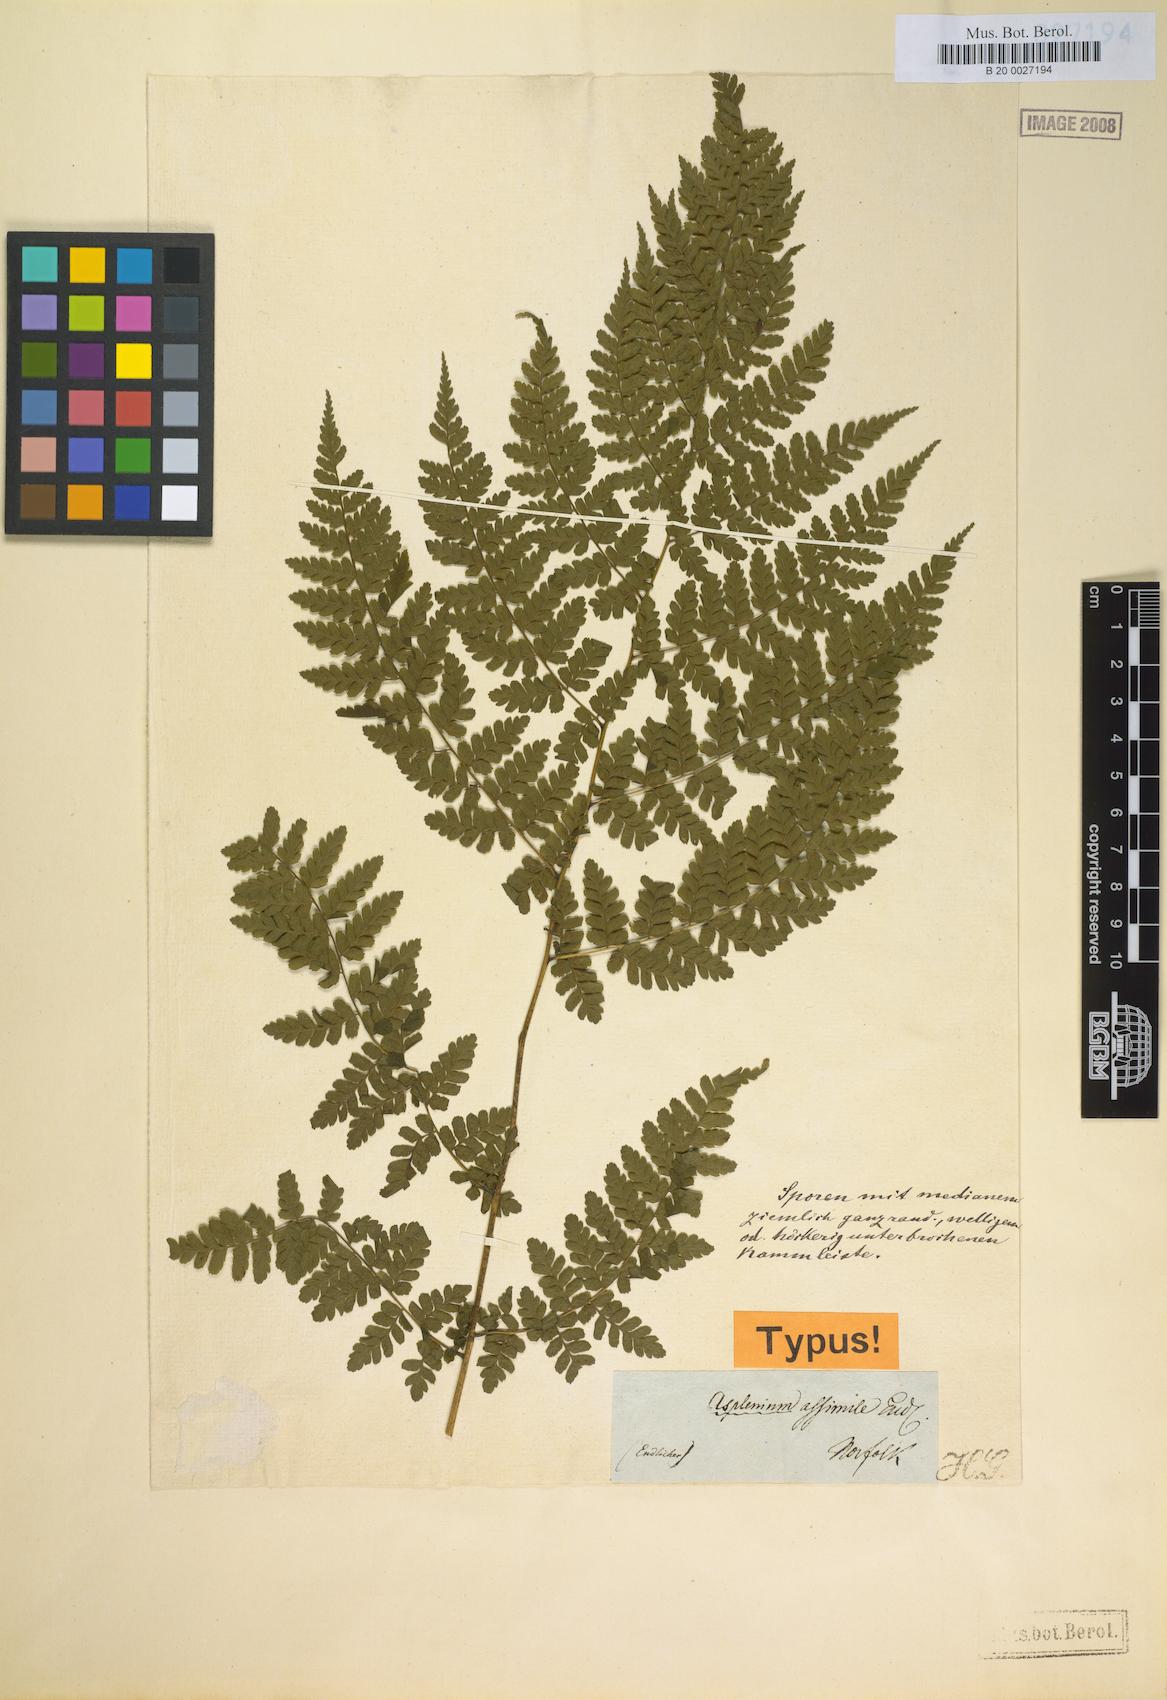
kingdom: Plantae
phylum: Tracheophyta
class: Polypodiopsida
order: Polypodiales
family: Athyriaceae
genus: Diplazium
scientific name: Diplazium assimile
